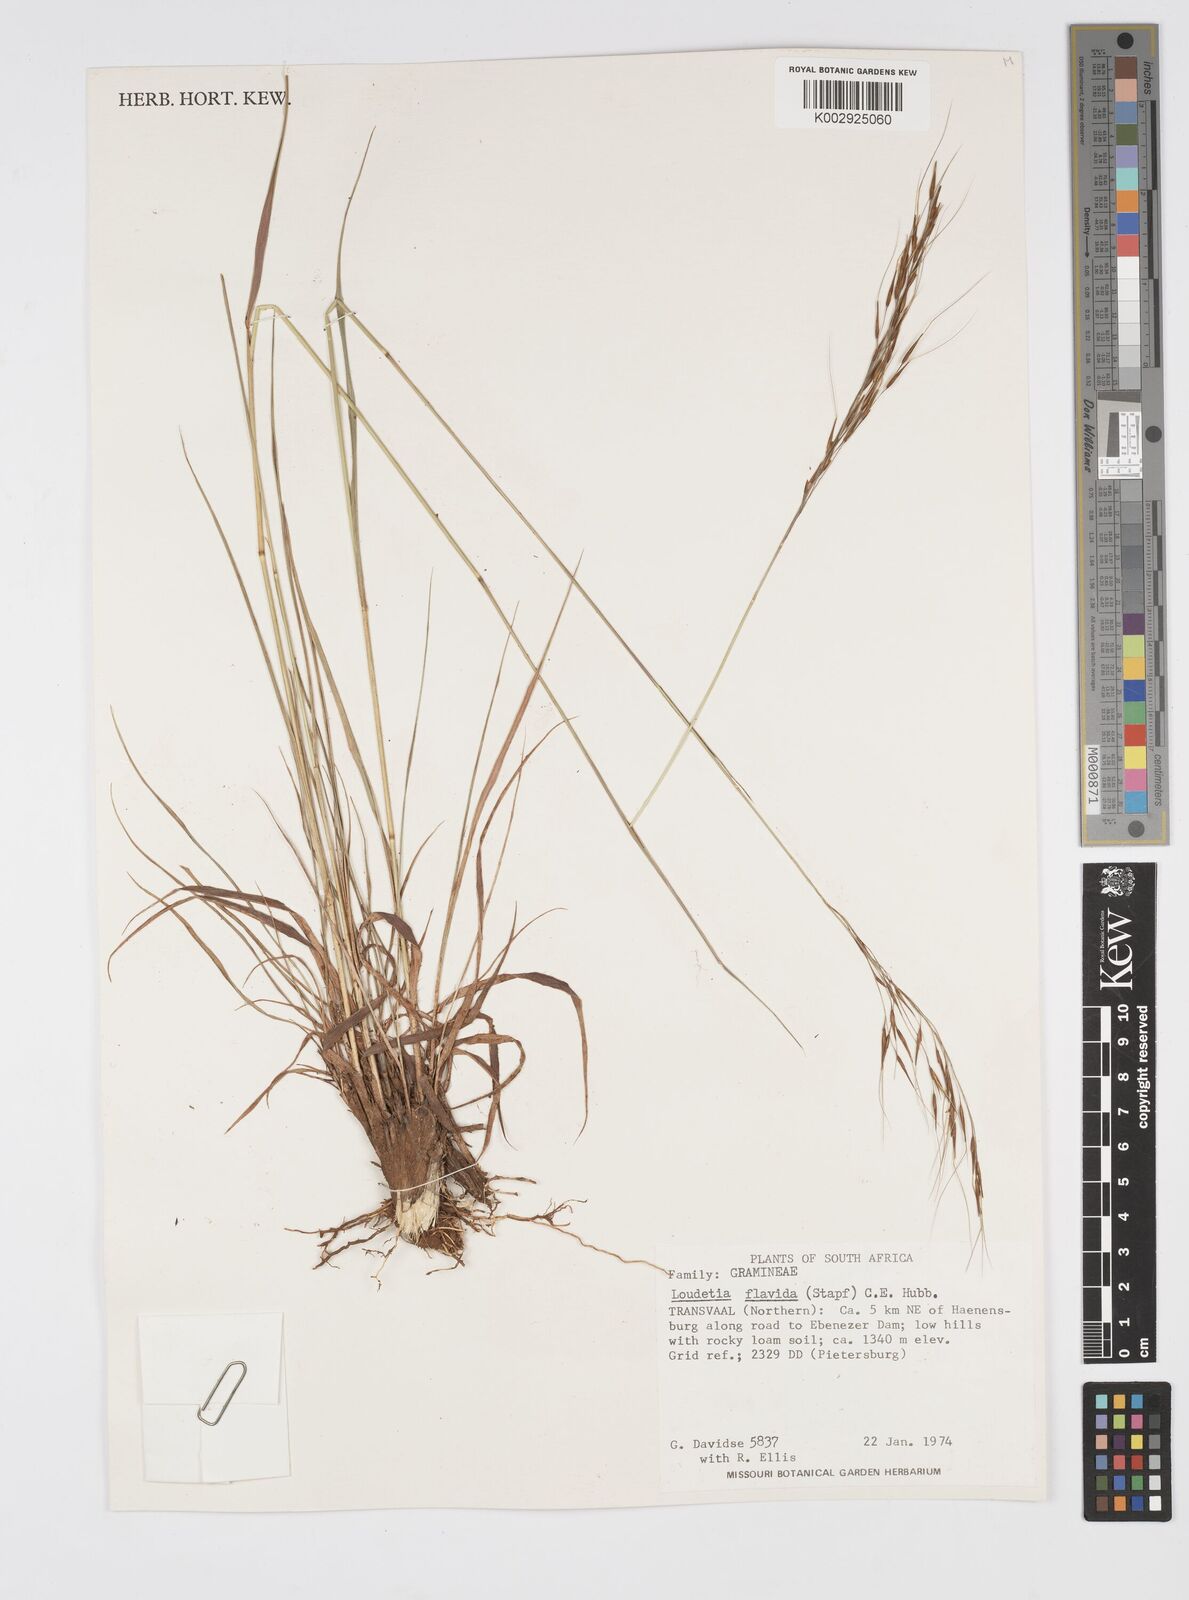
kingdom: Plantae
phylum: Tracheophyta
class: Liliopsida
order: Poales
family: Poaceae
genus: Loudetia
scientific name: Loudetia flavida
